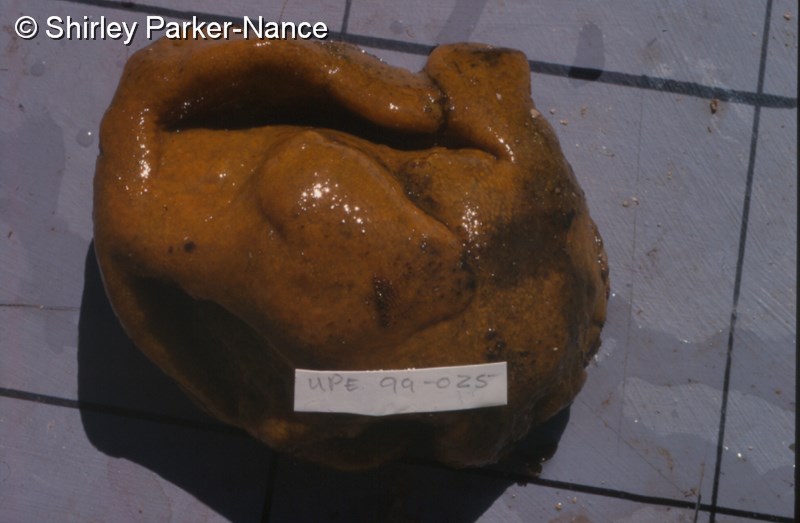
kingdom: Animalia
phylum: Chordata
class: Ascidiacea
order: Aplousobranchia
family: Polyclinidae
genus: Polyclinum
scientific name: Polyclinum
